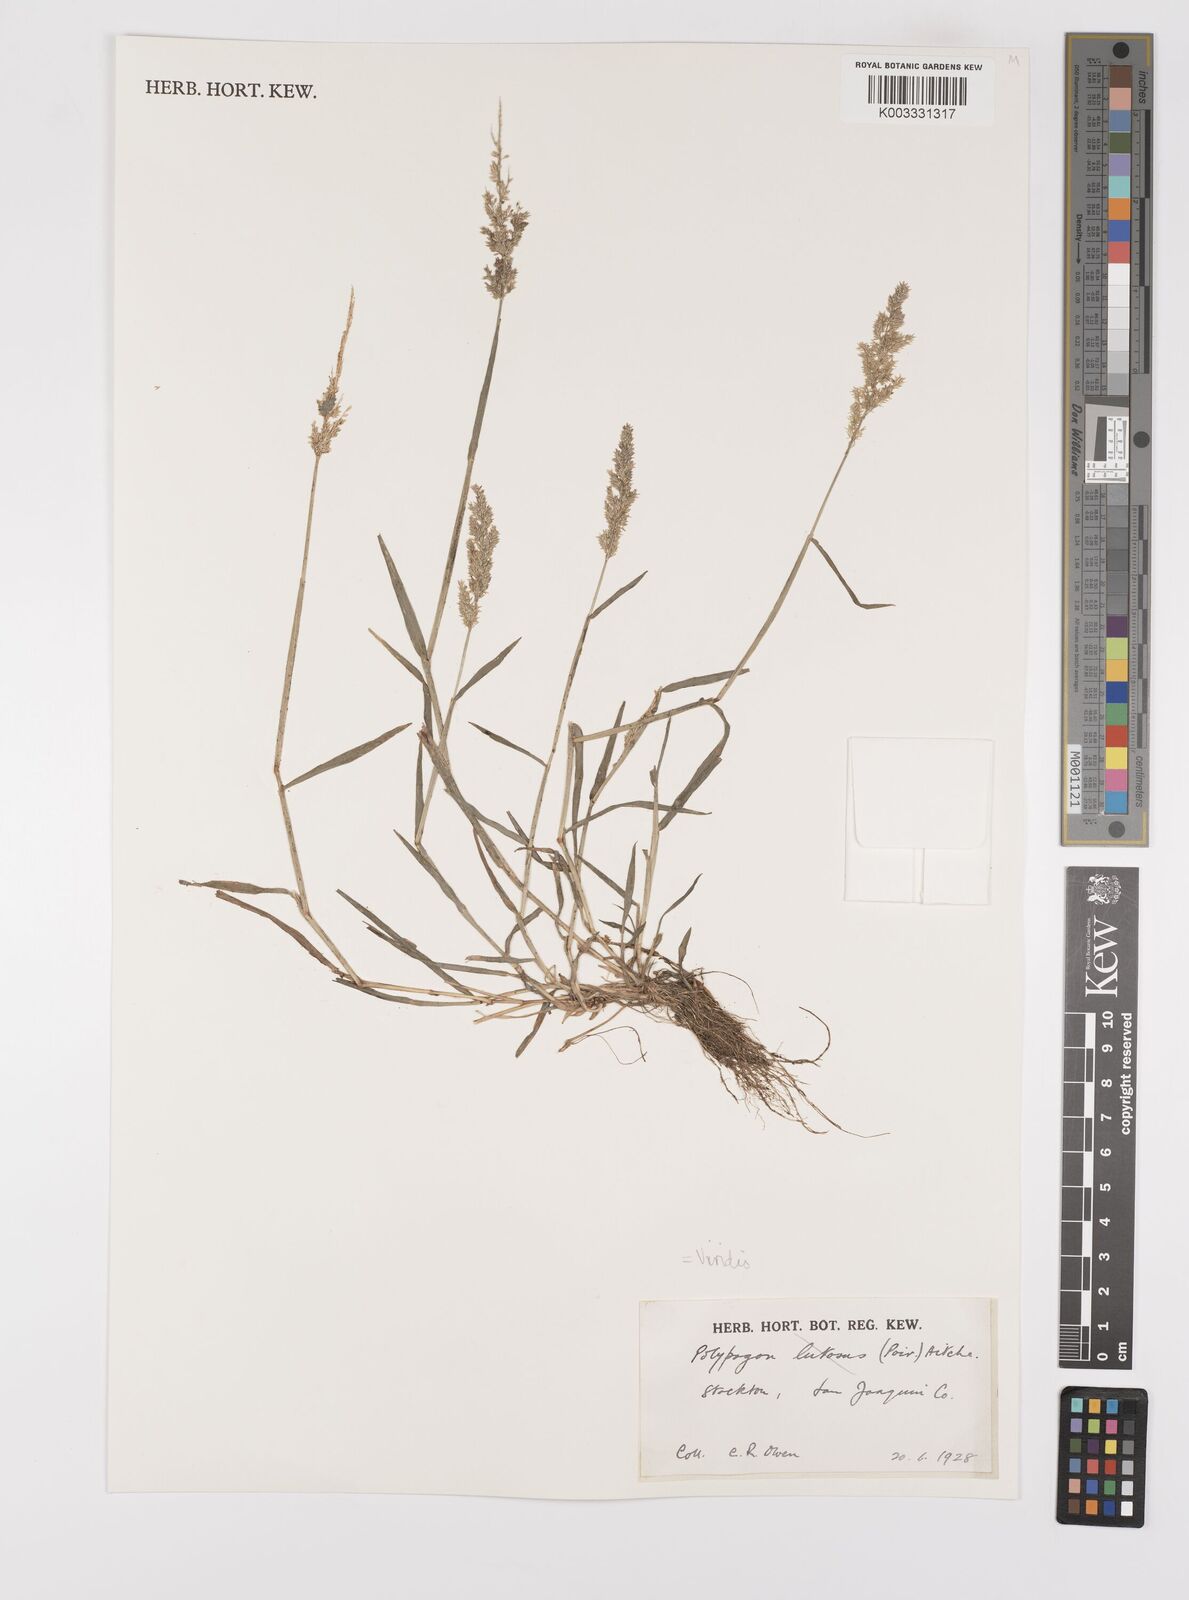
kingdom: Plantae
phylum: Tracheophyta
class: Liliopsida
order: Poales
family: Poaceae
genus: Polypogon
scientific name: Polypogon viridis
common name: Water bent
